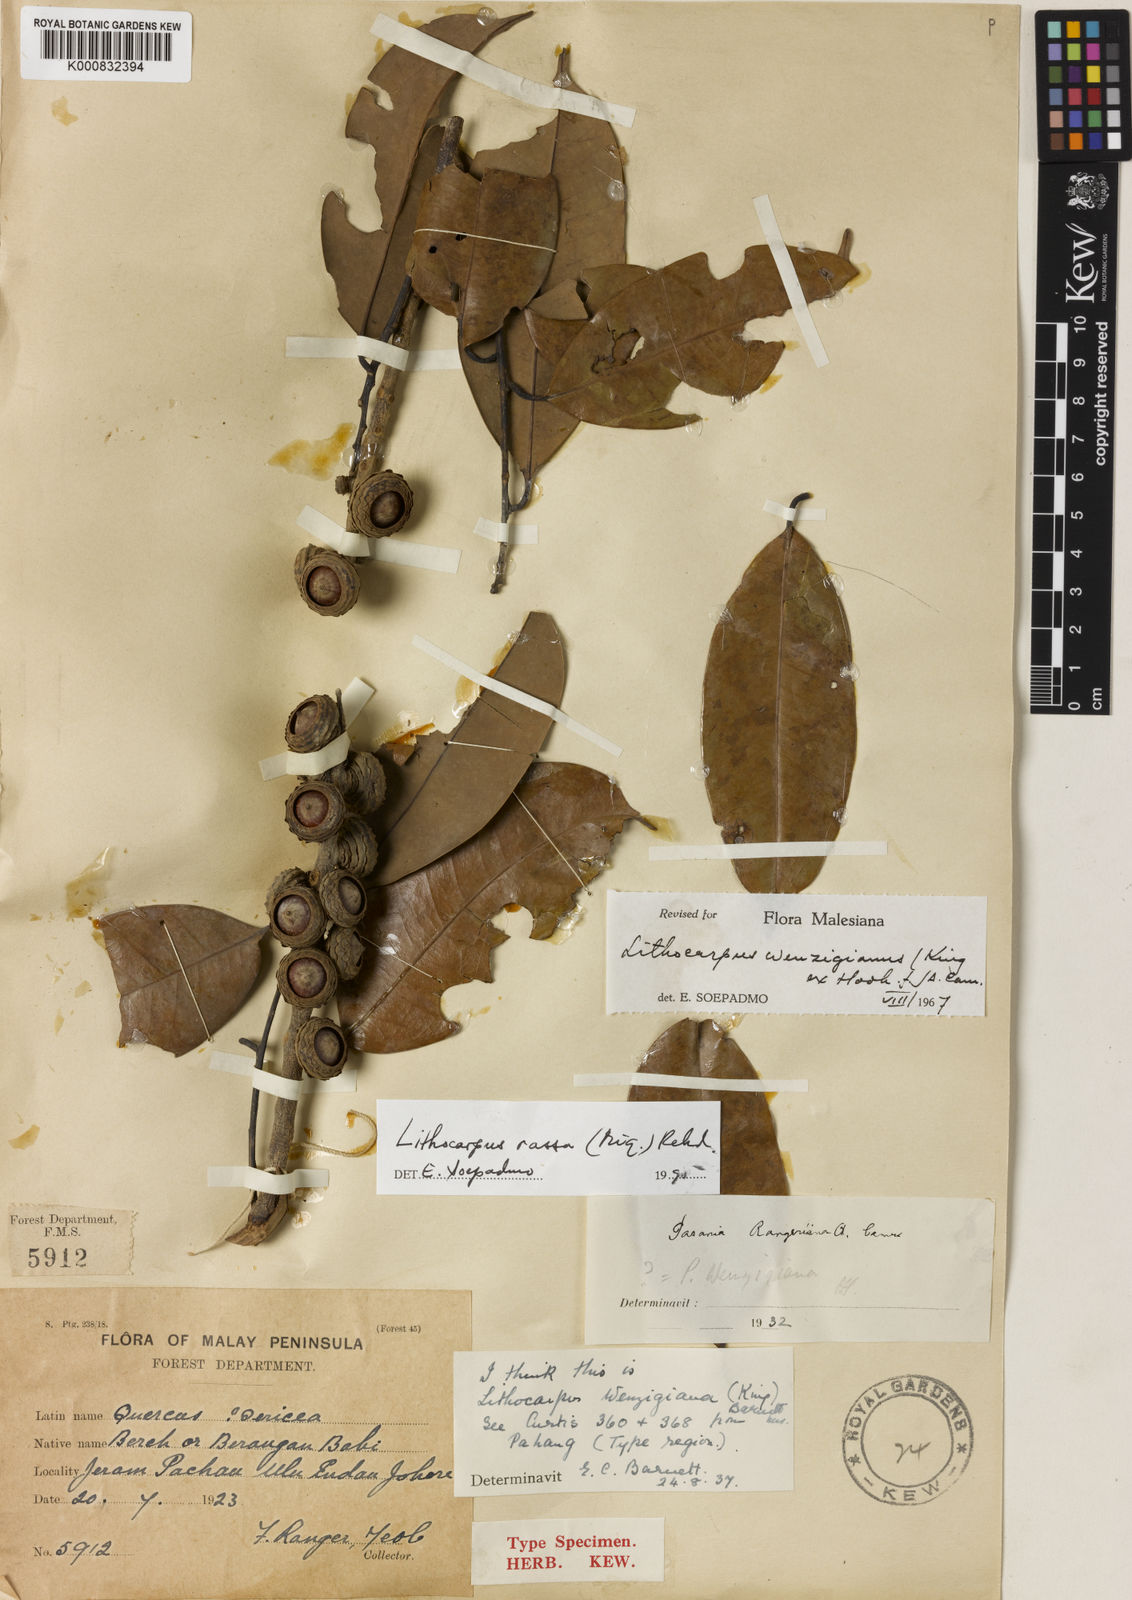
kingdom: Plantae
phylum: Tracheophyta
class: Magnoliopsida
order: Fagales
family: Fagaceae
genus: Lithocarpus
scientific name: Lithocarpus rassa
